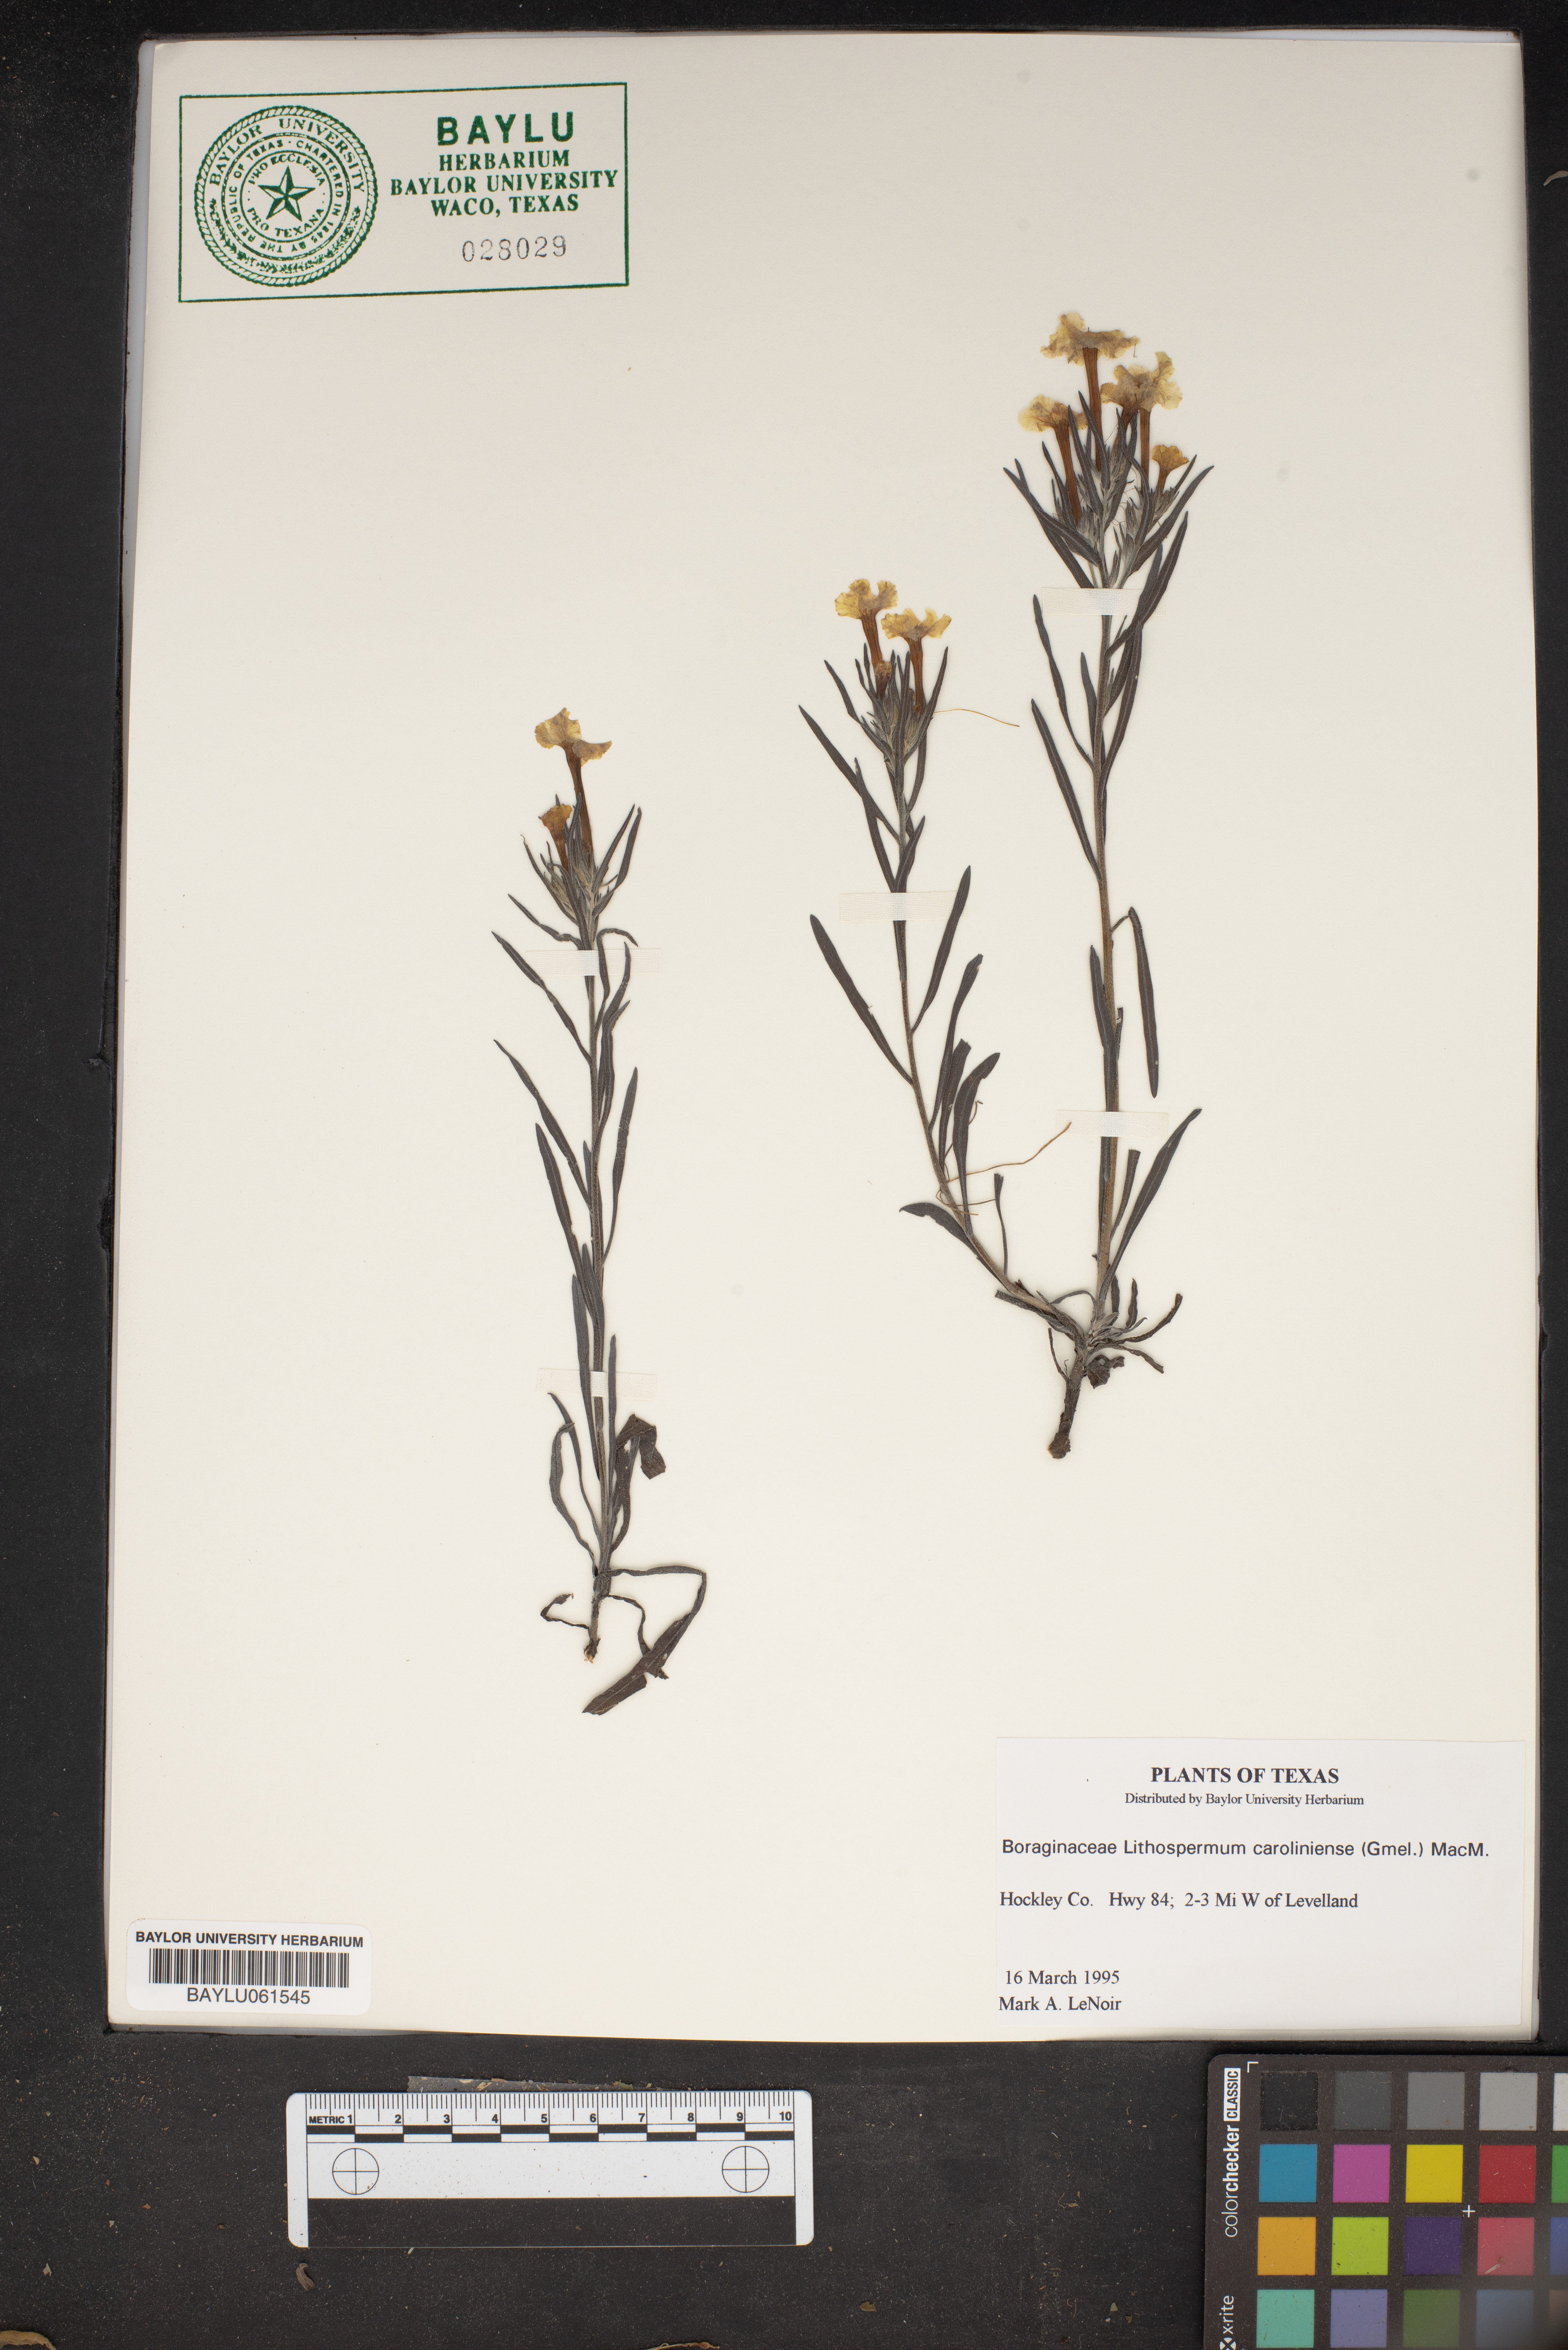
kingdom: Plantae
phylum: Tracheophyta
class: Magnoliopsida
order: Boraginales
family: Boraginaceae
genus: Lithospermum
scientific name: Lithospermum caroliniense
